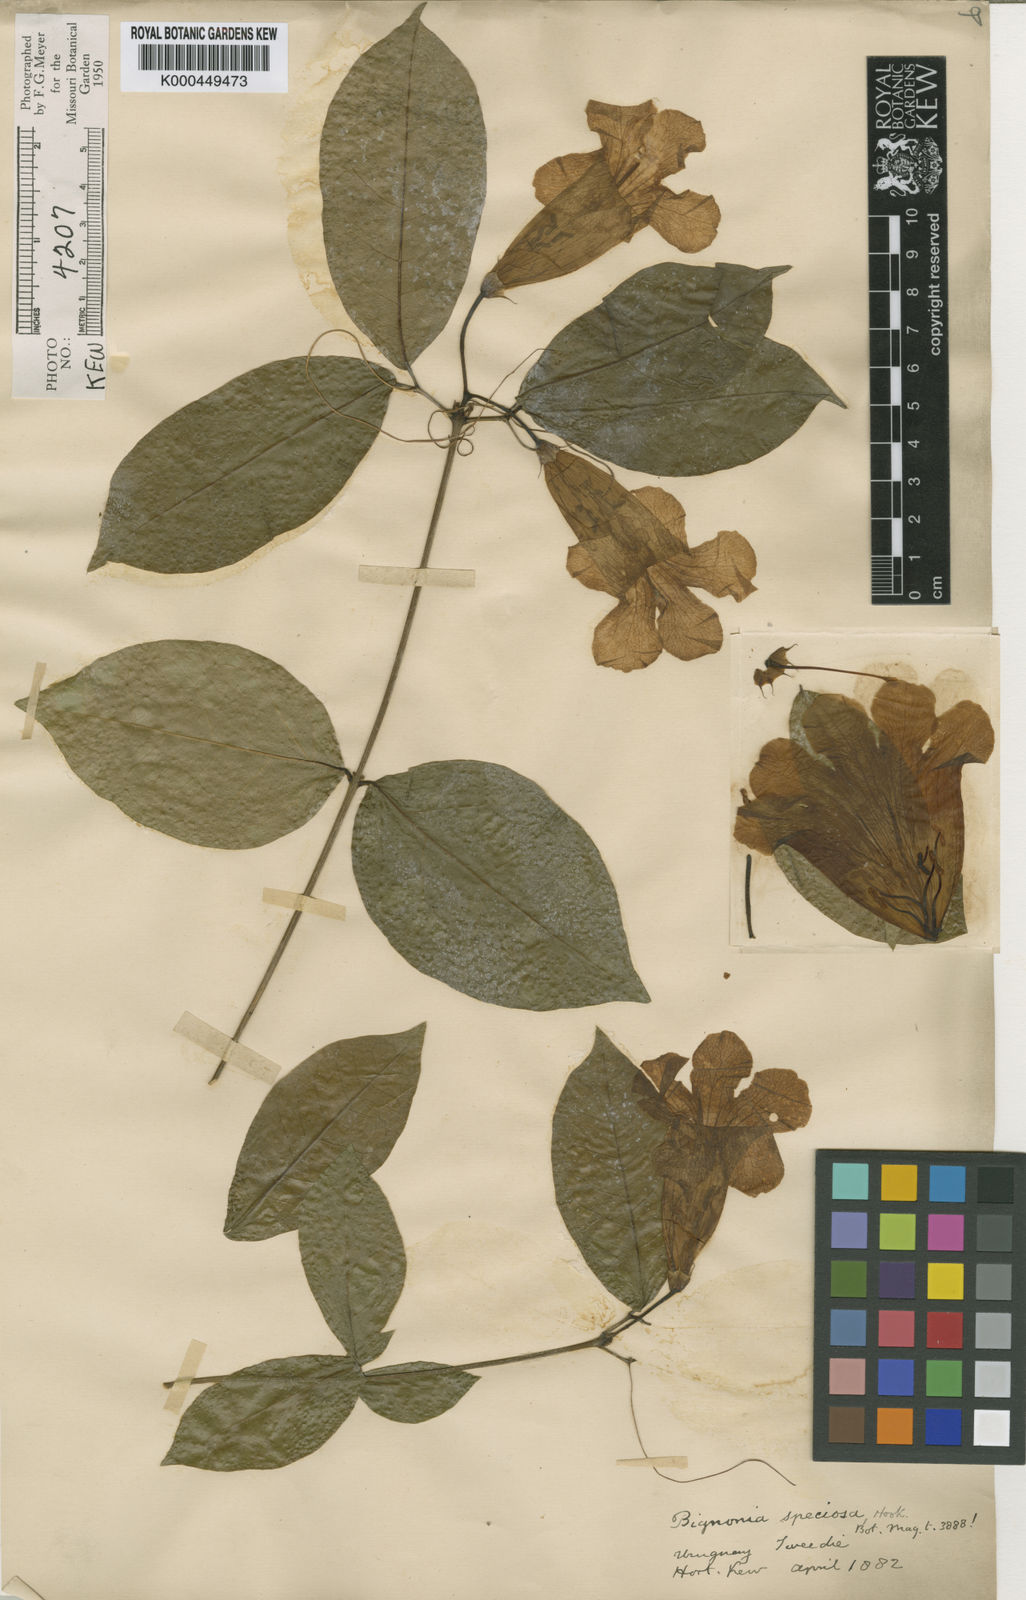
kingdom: Plantae
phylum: Tracheophyta
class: Magnoliopsida
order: Lamiales
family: Bignoniaceae
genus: Bignonia
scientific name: Bignonia callistegioides
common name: Argentine trumpetvine
